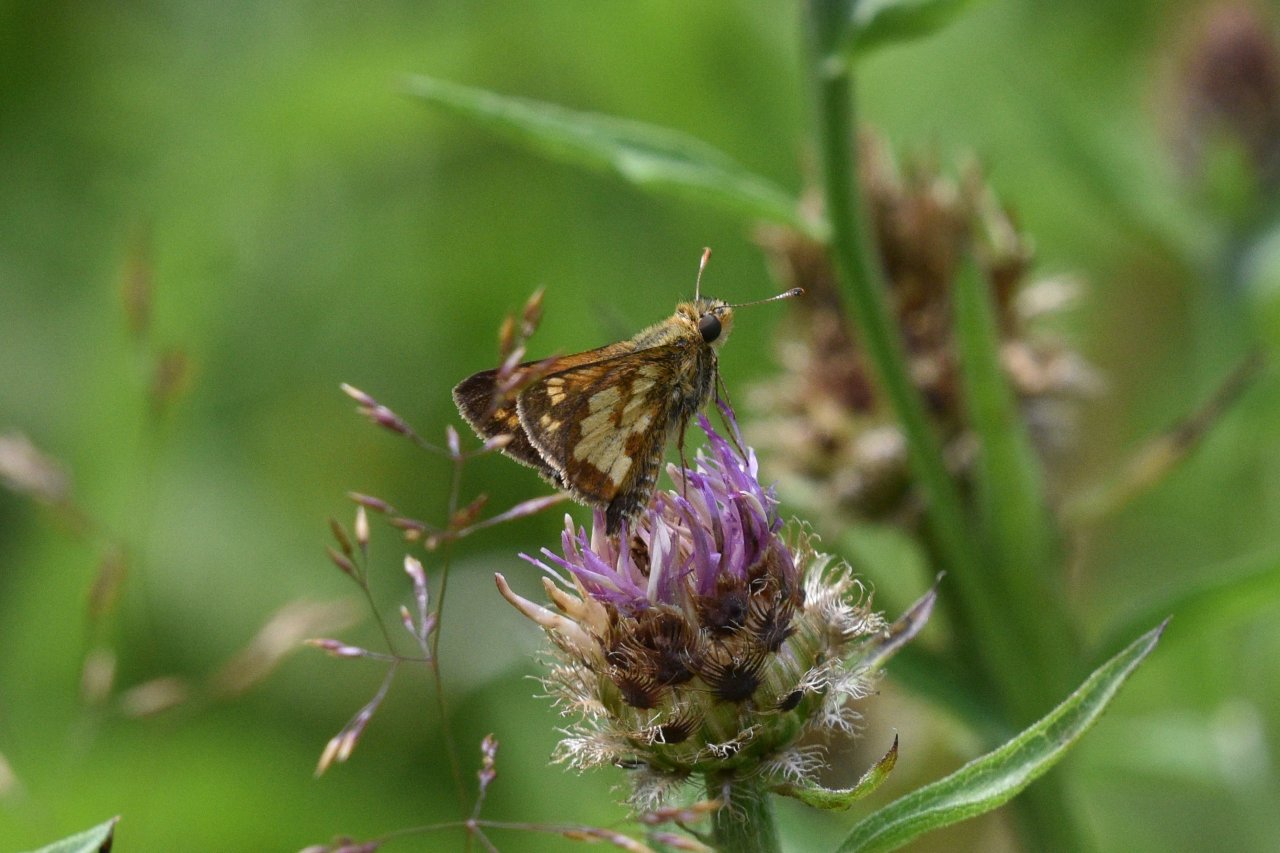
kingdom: Animalia
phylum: Arthropoda
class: Insecta
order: Lepidoptera
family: Hesperiidae
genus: Polites
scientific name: Polites coras
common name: Peck's Skipper
